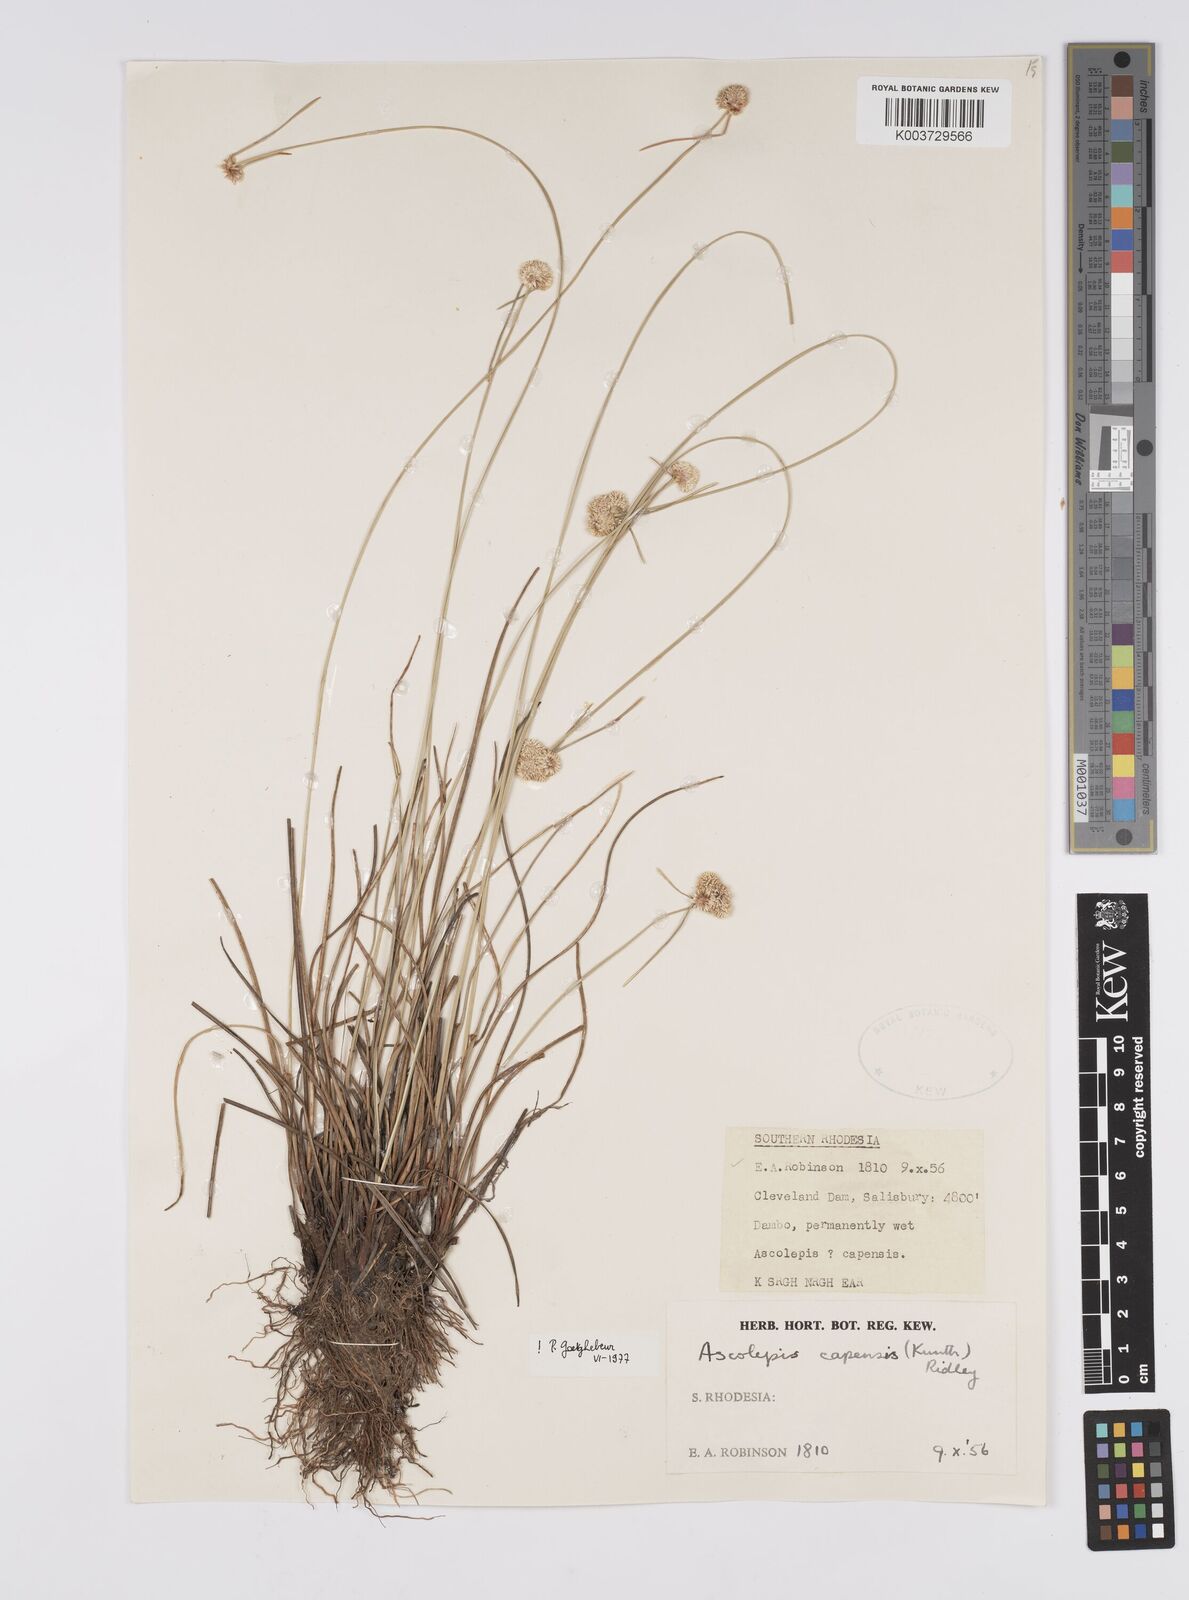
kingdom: Plantae
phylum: Tracheophyta
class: Liliopsida
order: Poales
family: Cyperaceae
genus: Cyperus
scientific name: Cyperus
